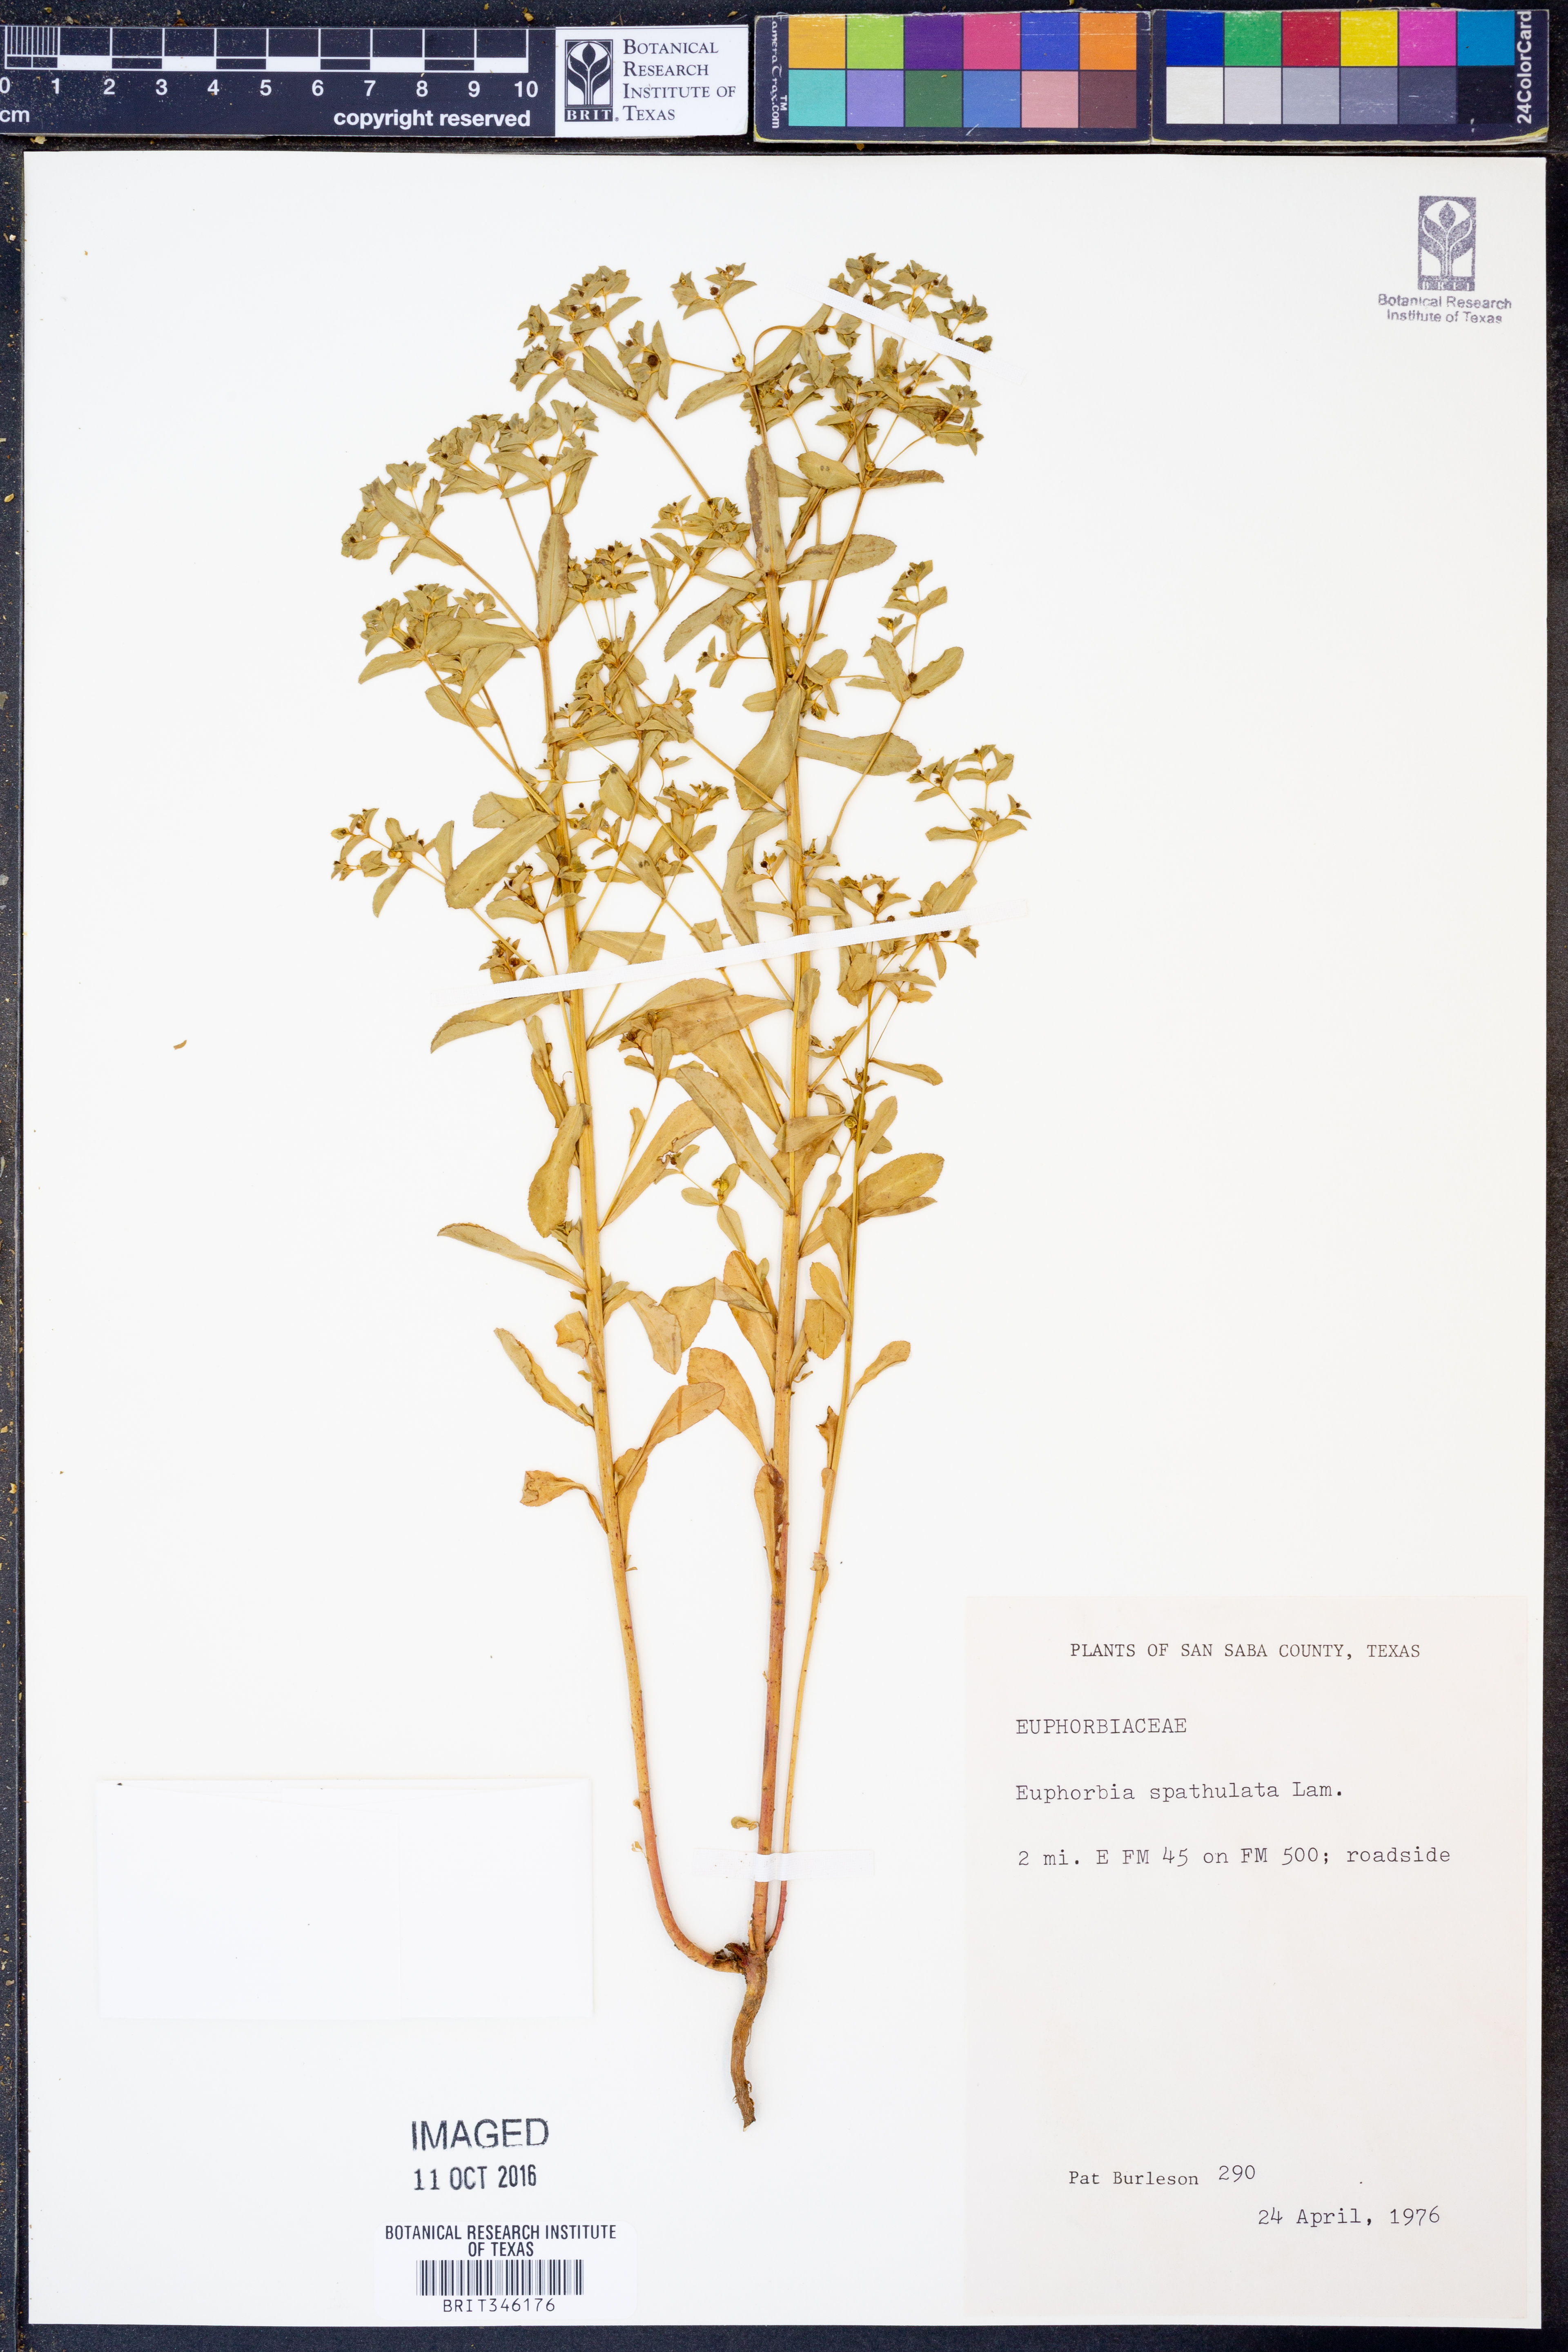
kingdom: Plantae
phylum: Tracheophyta
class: Magnoliopsida
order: Malpighiales
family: Euphorbiaceae
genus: Euphorbia
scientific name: Euphorbia spathulata
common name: Blunt spurge
